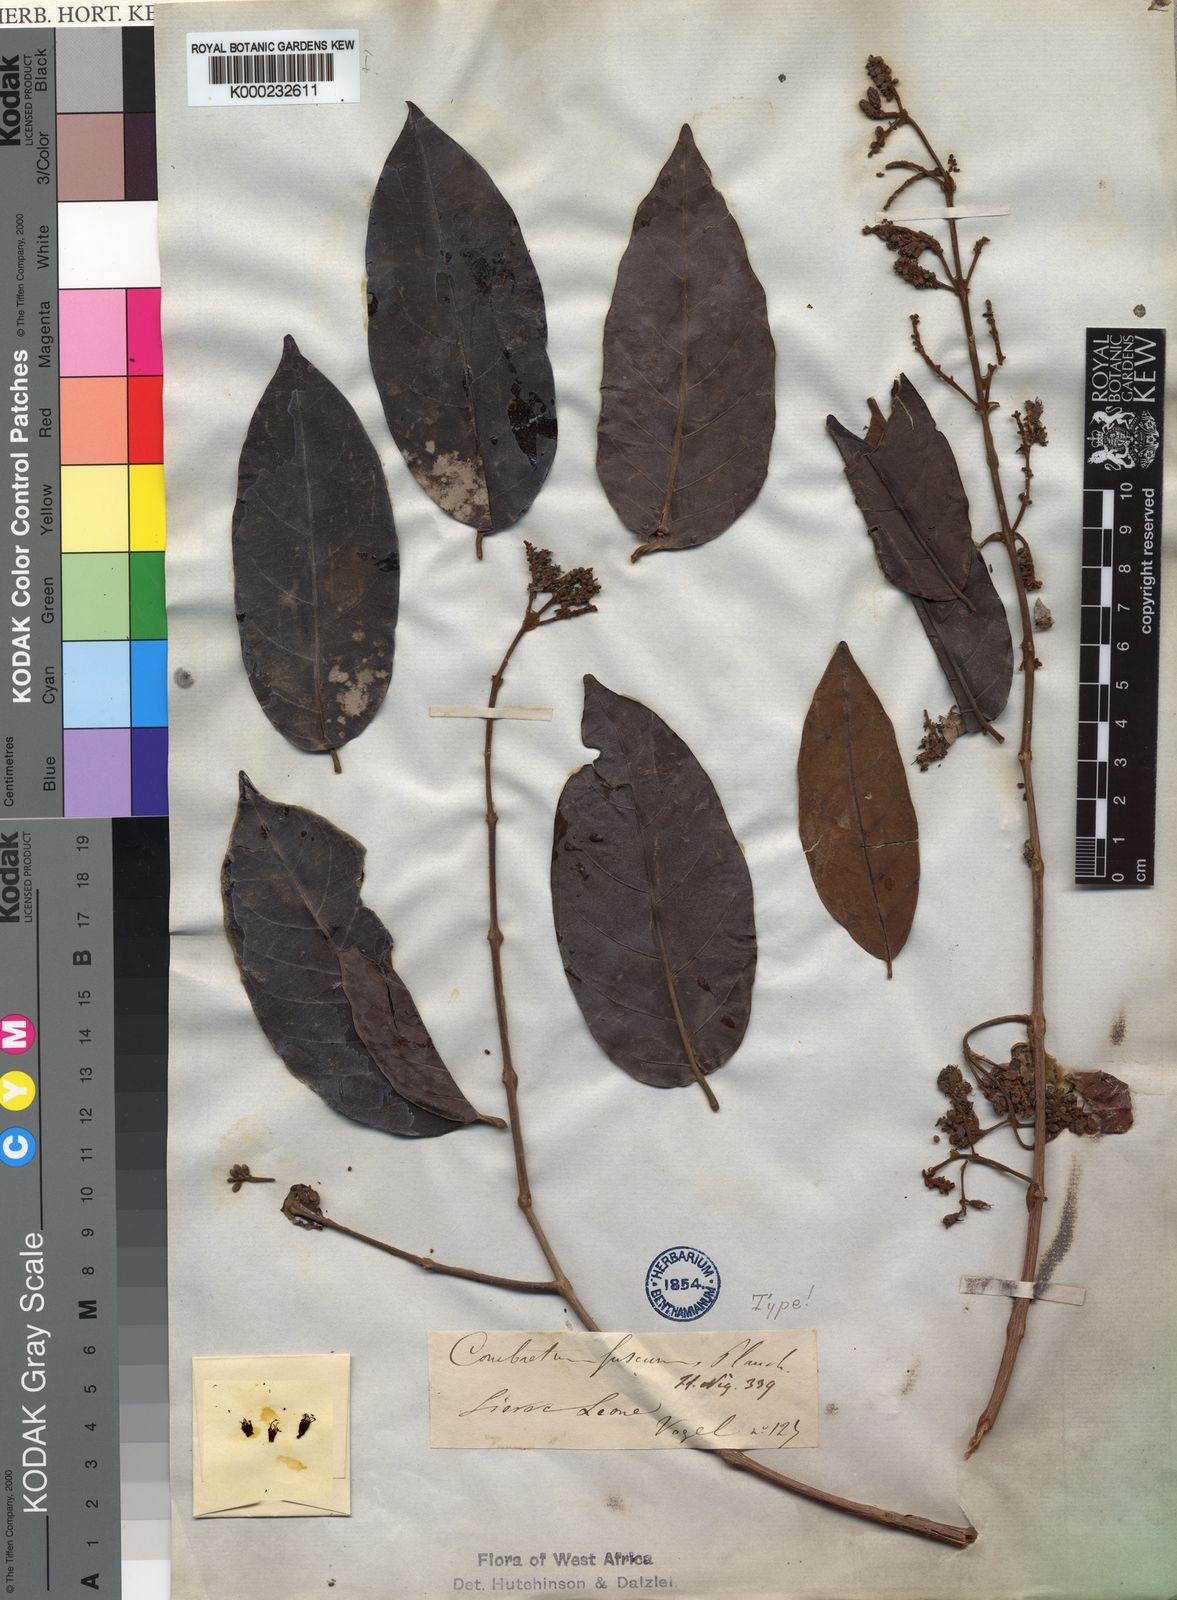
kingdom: Plantae
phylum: Tracheophyta
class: Magnoliopsida
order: Myrtales
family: Combretaceae
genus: Combretum
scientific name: Combretum fuscum
